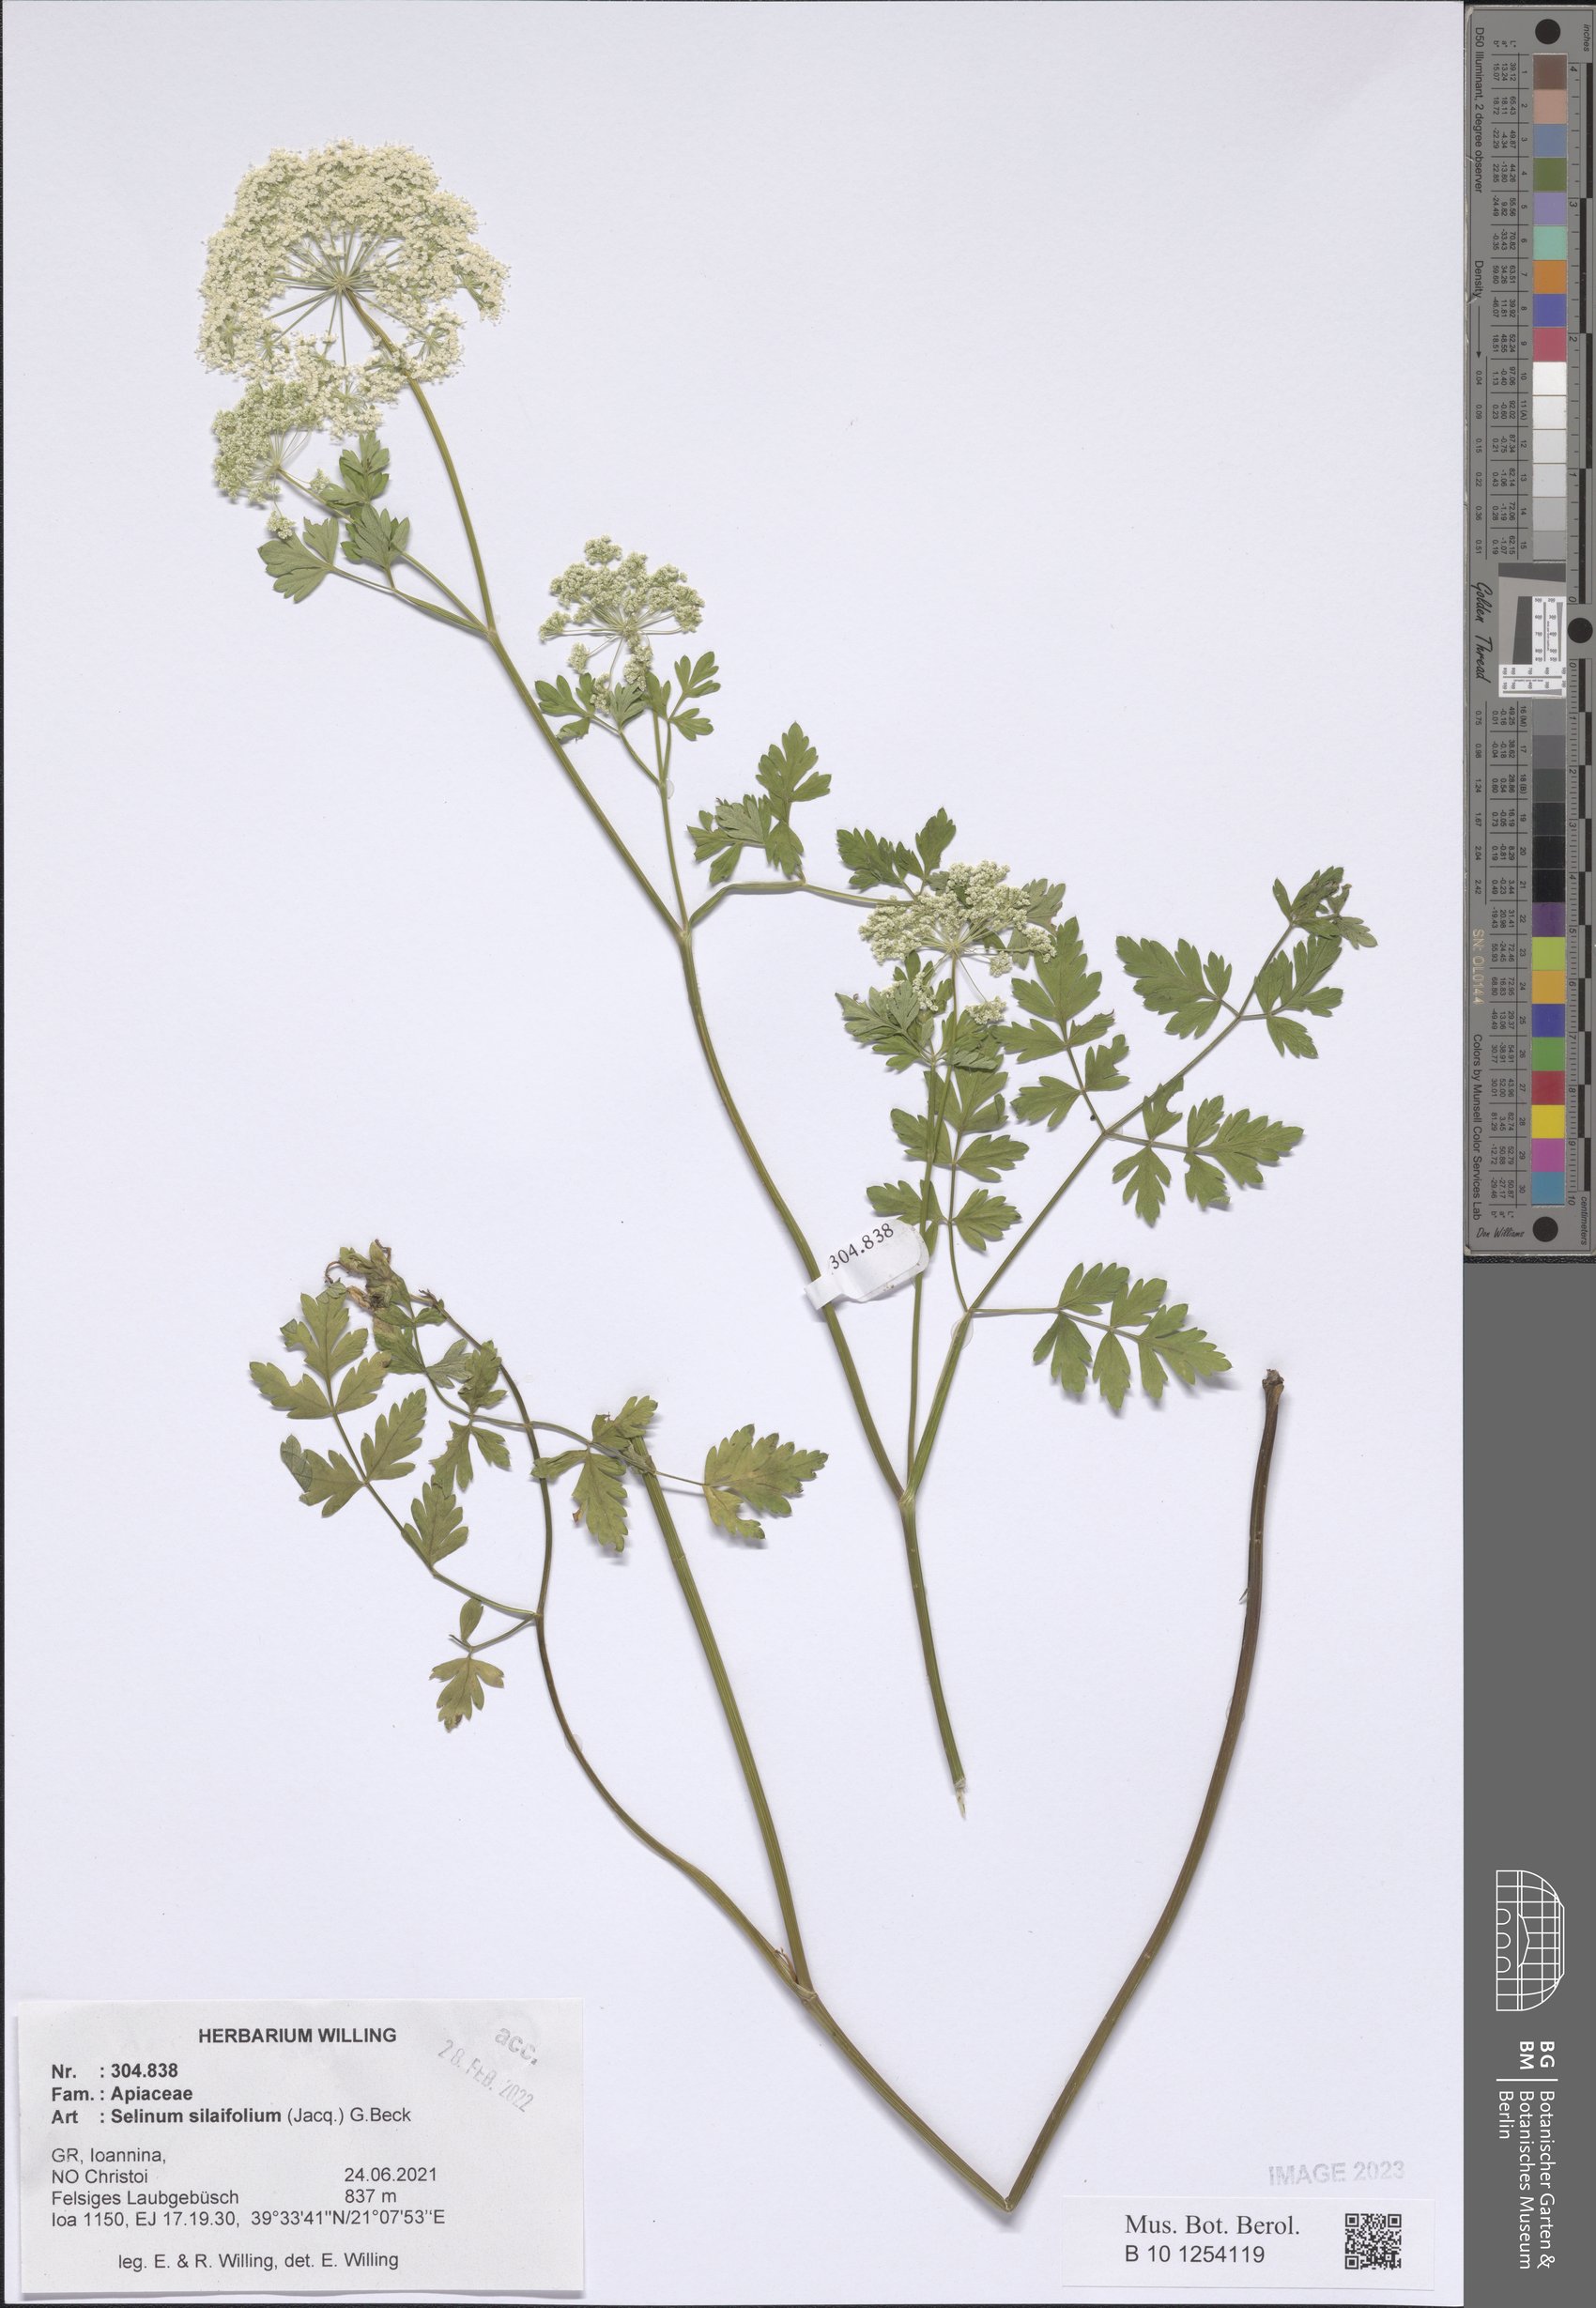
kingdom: Plantae
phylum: Tracheophyta
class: Magnoliopsida
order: Apiales
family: Apiaceae
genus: Katapsuxis
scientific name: Katapsuxis silaifolia
